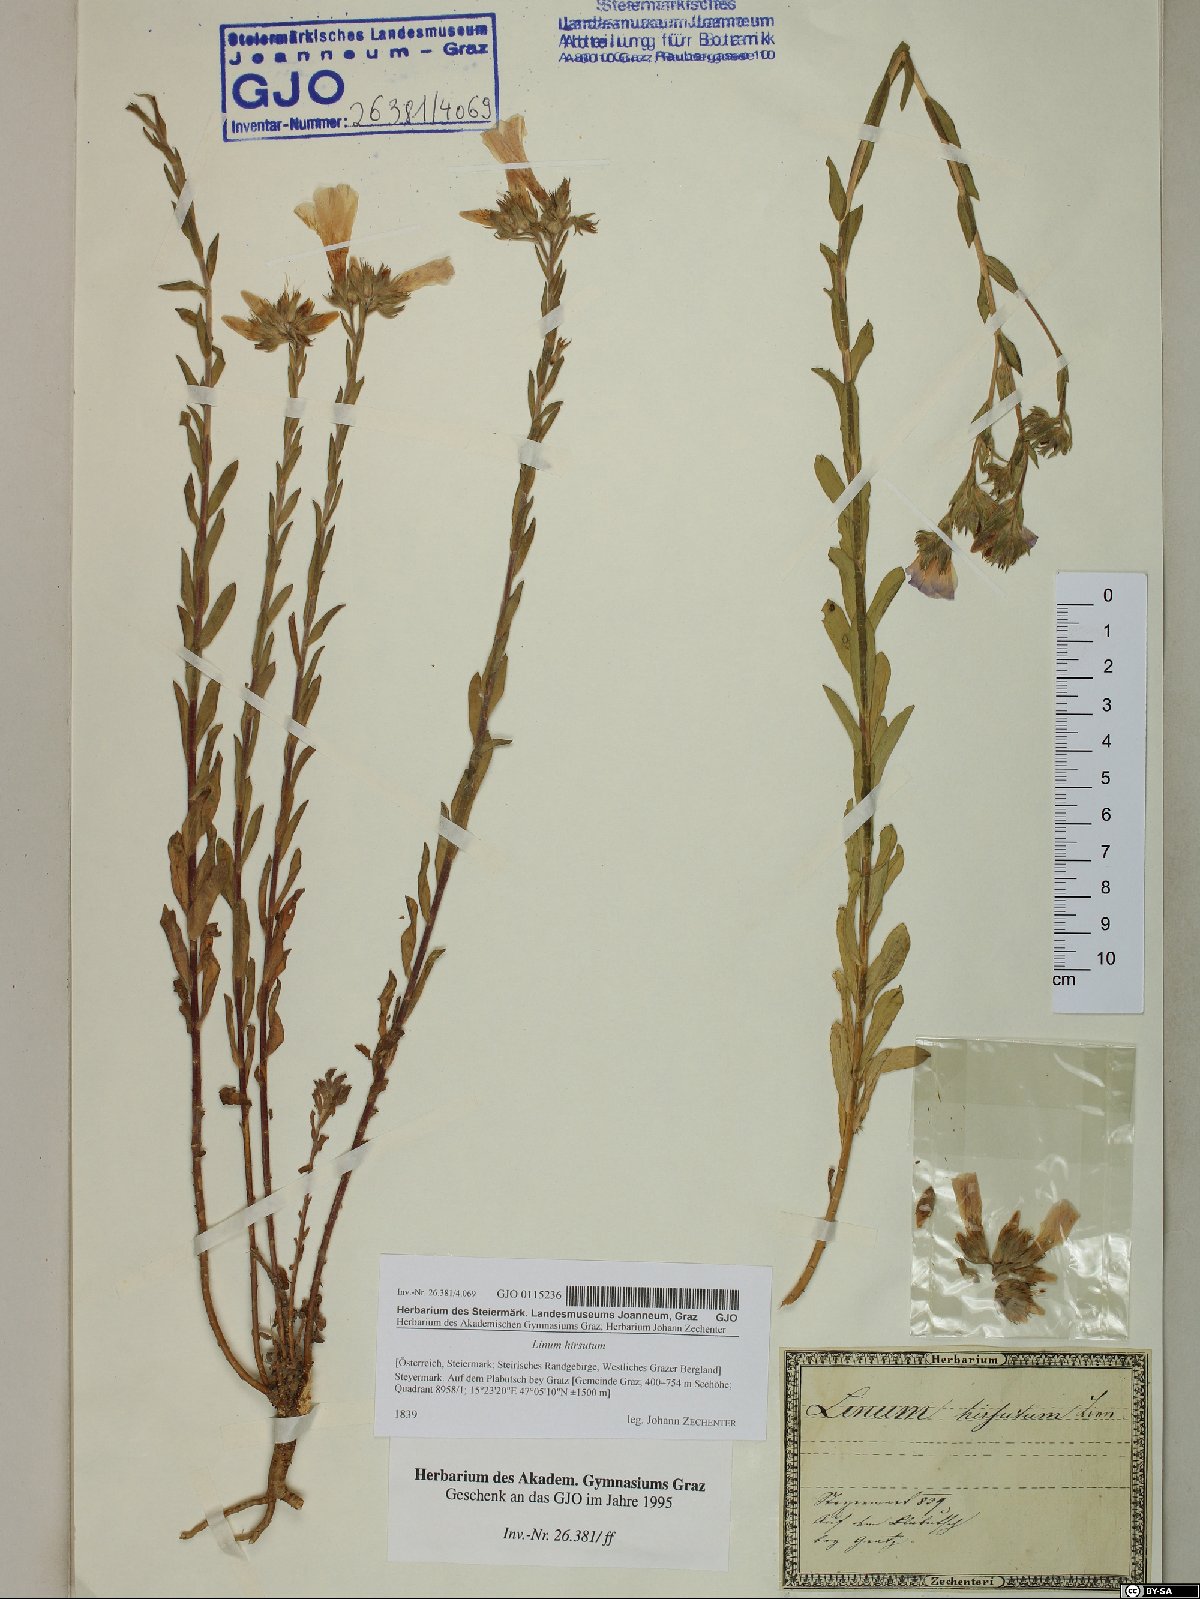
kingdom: Plantae
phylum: Tracheophyta
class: Magnoliopsida
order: Malpighiales
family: Linaceae
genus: Linum
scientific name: Linum hirsutum
